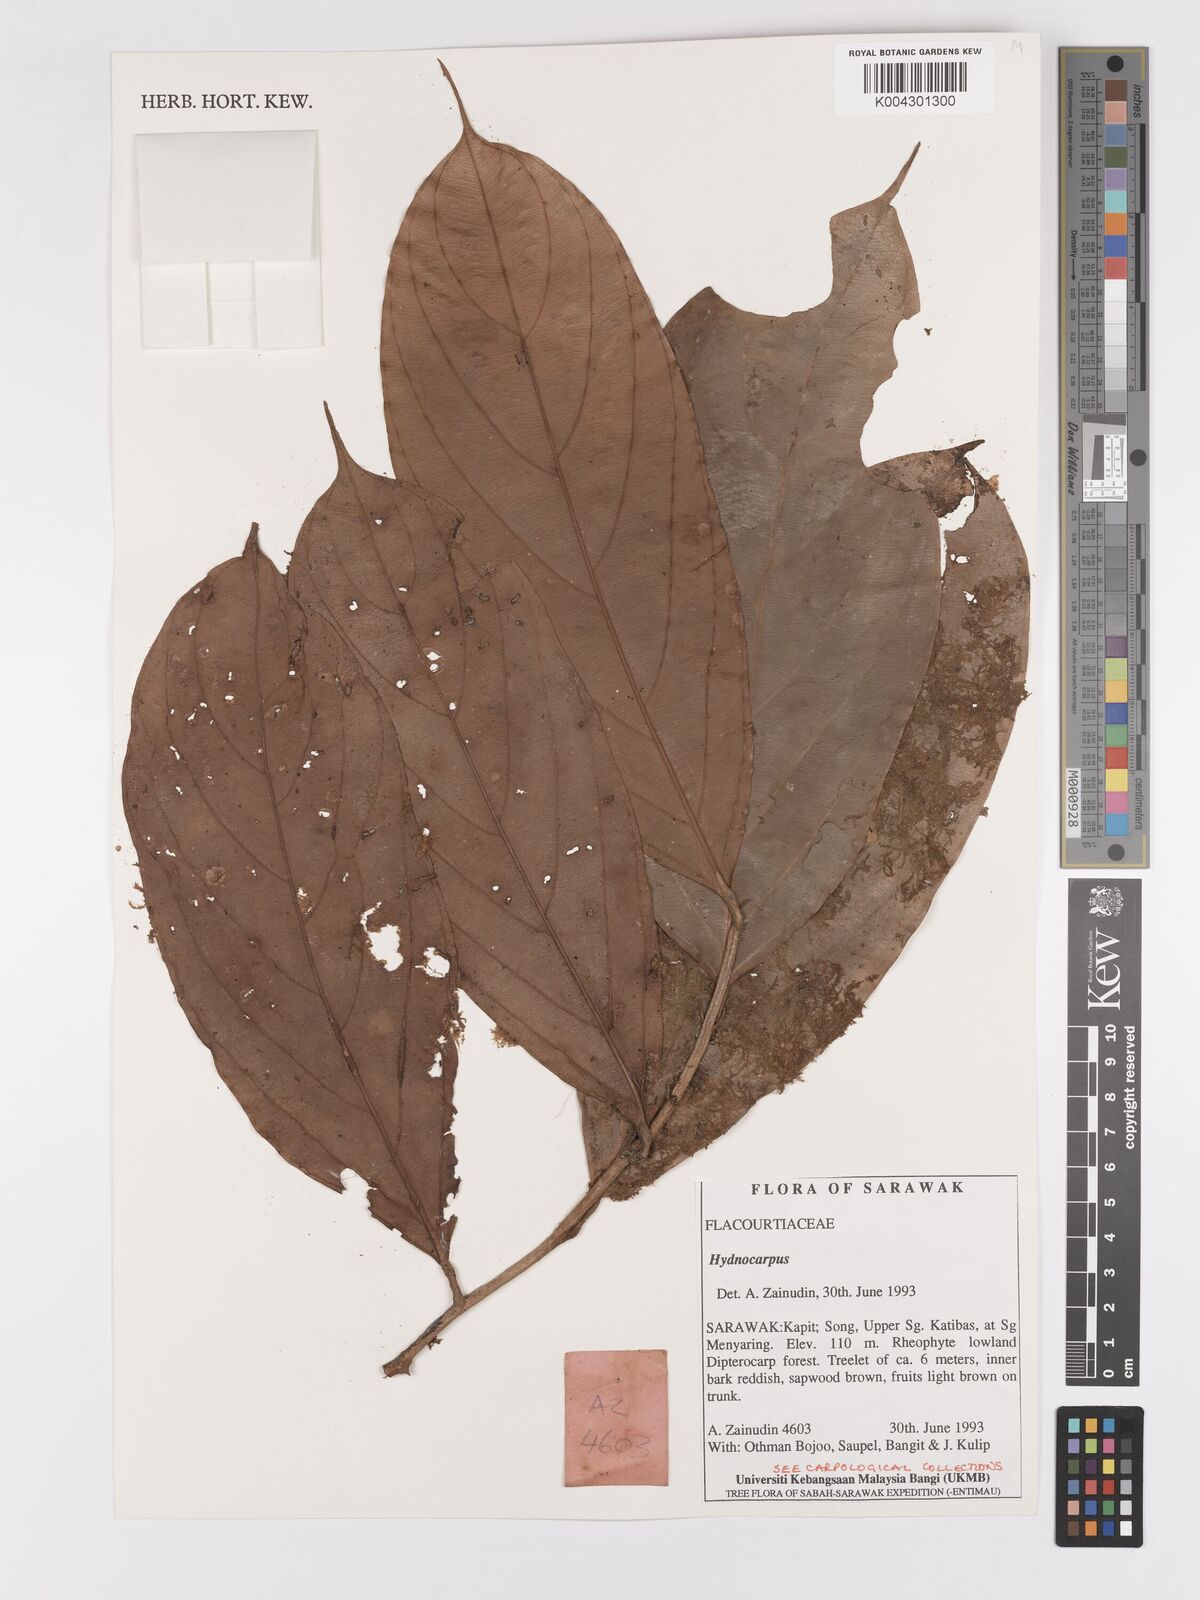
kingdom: Plantae
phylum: Tracheophyta
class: Magnoliopsida
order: Malpighiales
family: Achariaceae
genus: Hydnocarpus
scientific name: Hydnocarpus
